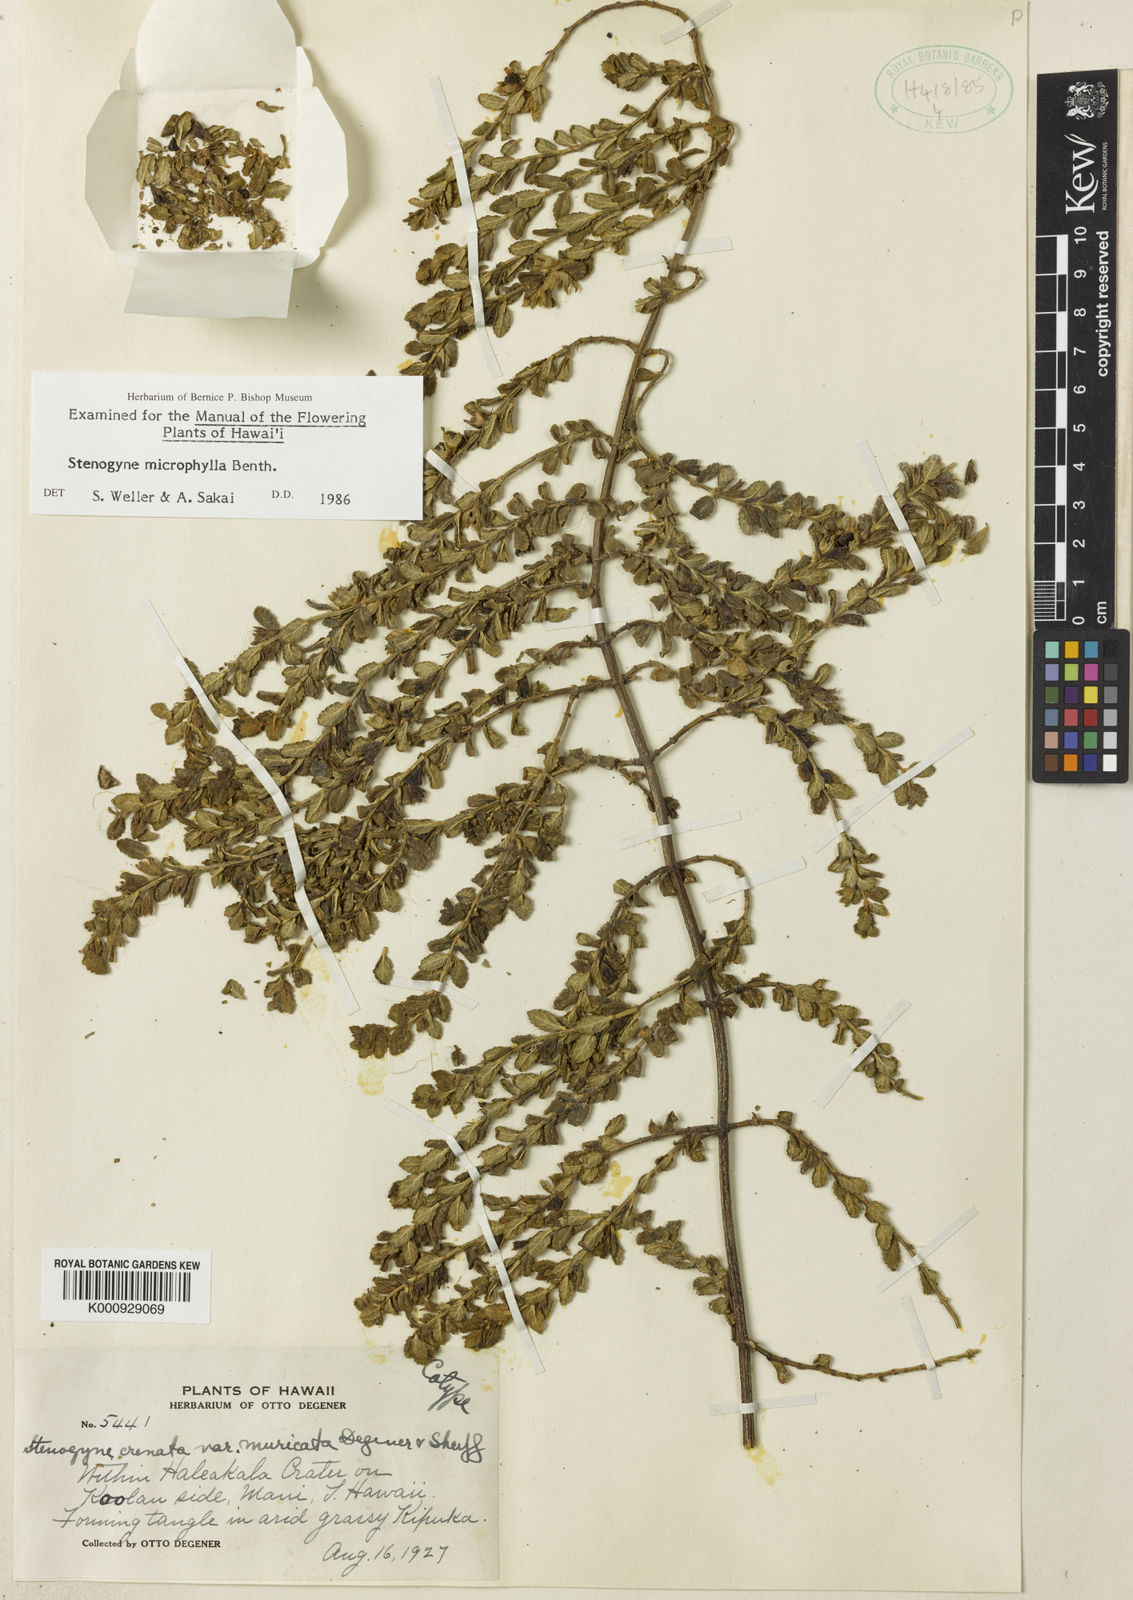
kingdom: Plantae
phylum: Tracheophyta
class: Magnoliopsida
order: Lamiales
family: Lamiaceae
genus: Stenogyne
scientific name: Stenogyne microphylla
